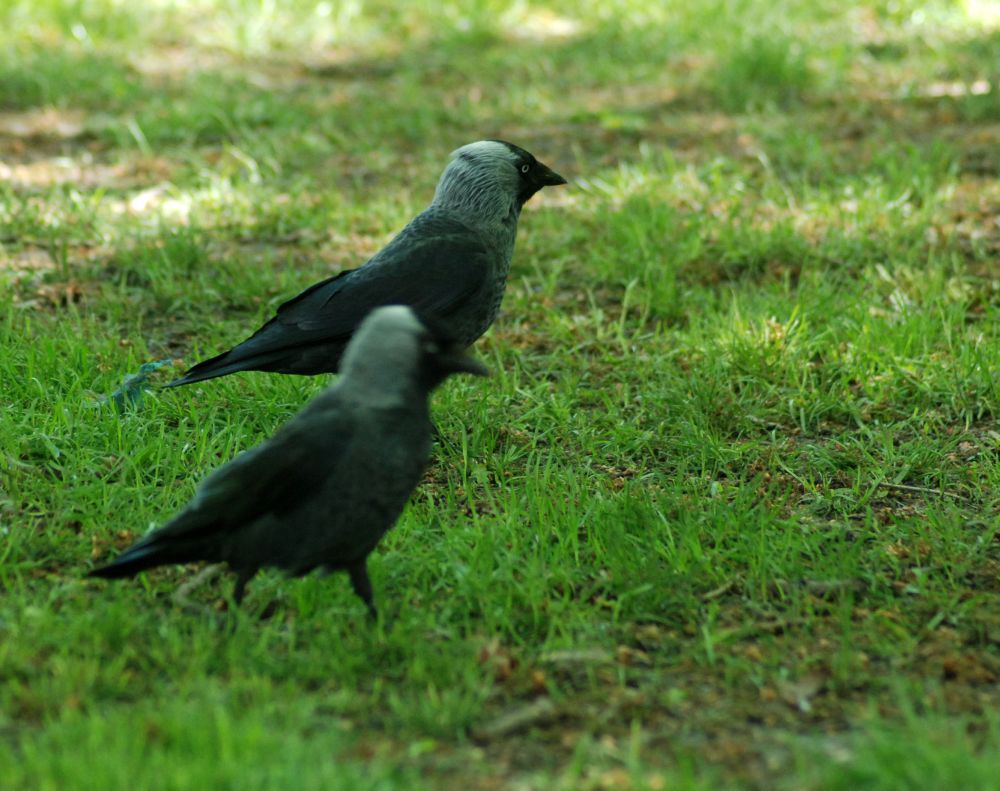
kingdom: Animalia
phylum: Chordata
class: Aves
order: Passeriformes
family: Corvidae
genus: Coloeus
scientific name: Coloeus monedula
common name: Western jackdaw
